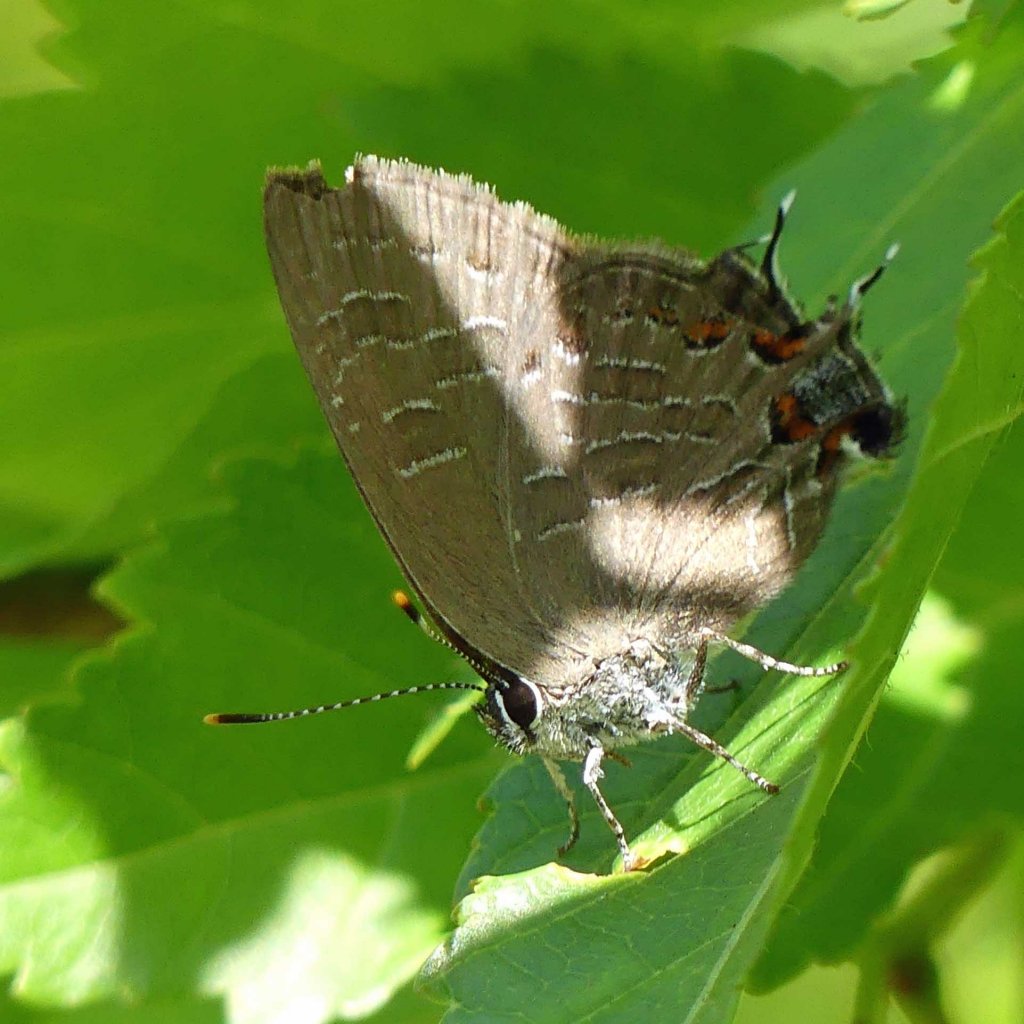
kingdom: Animalia
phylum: Arthropoda
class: Insecta
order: Lepidoptera
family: Lycaenidae
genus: Satyrium
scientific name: Satyrium liparops
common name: Striped Hairstreak
